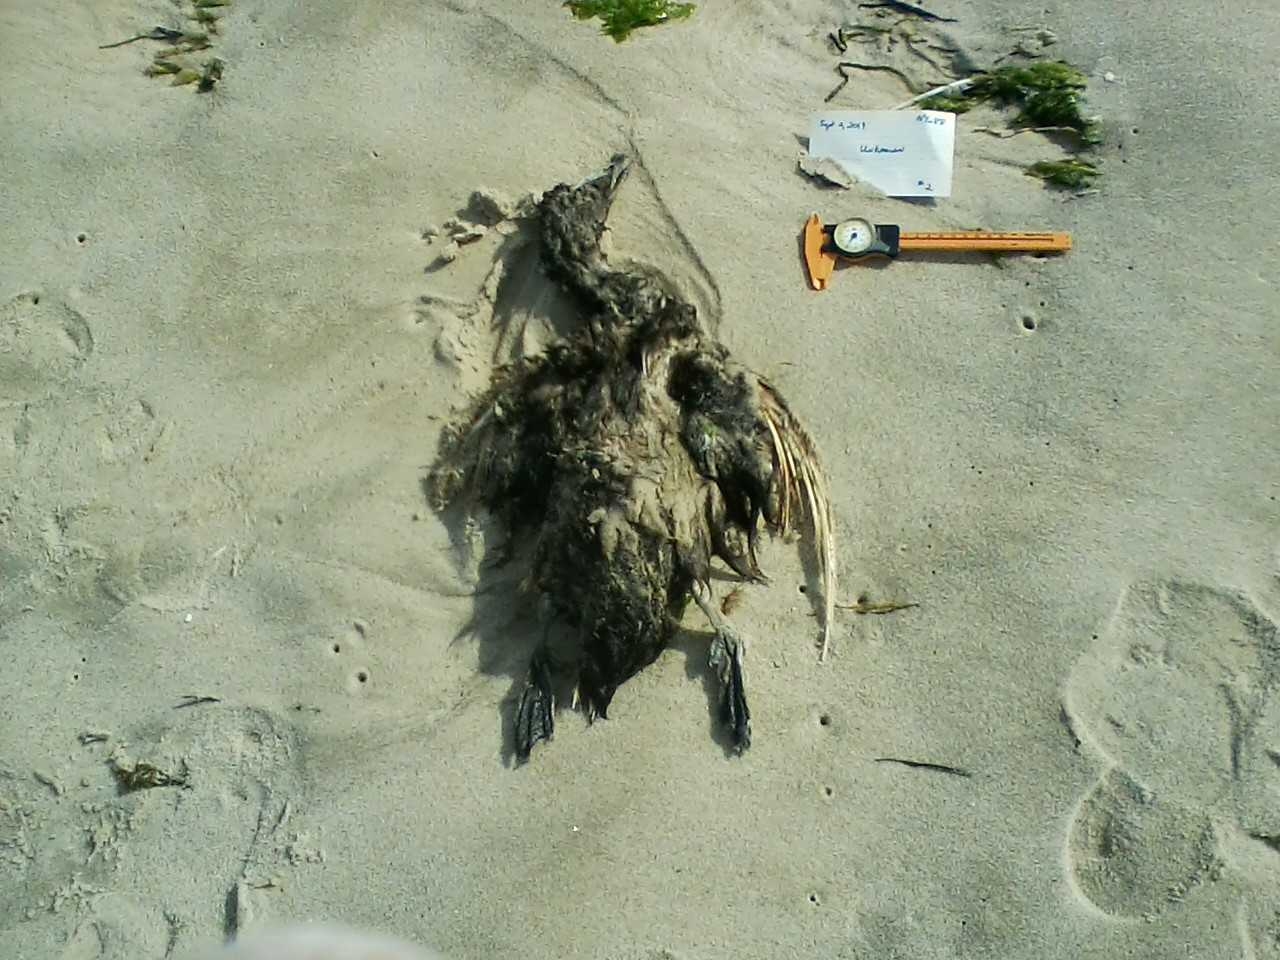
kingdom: Animalia
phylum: Chordata
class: Aves
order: Anseriformes
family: Anatidae
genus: Somateria
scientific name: Somateria mollissima
